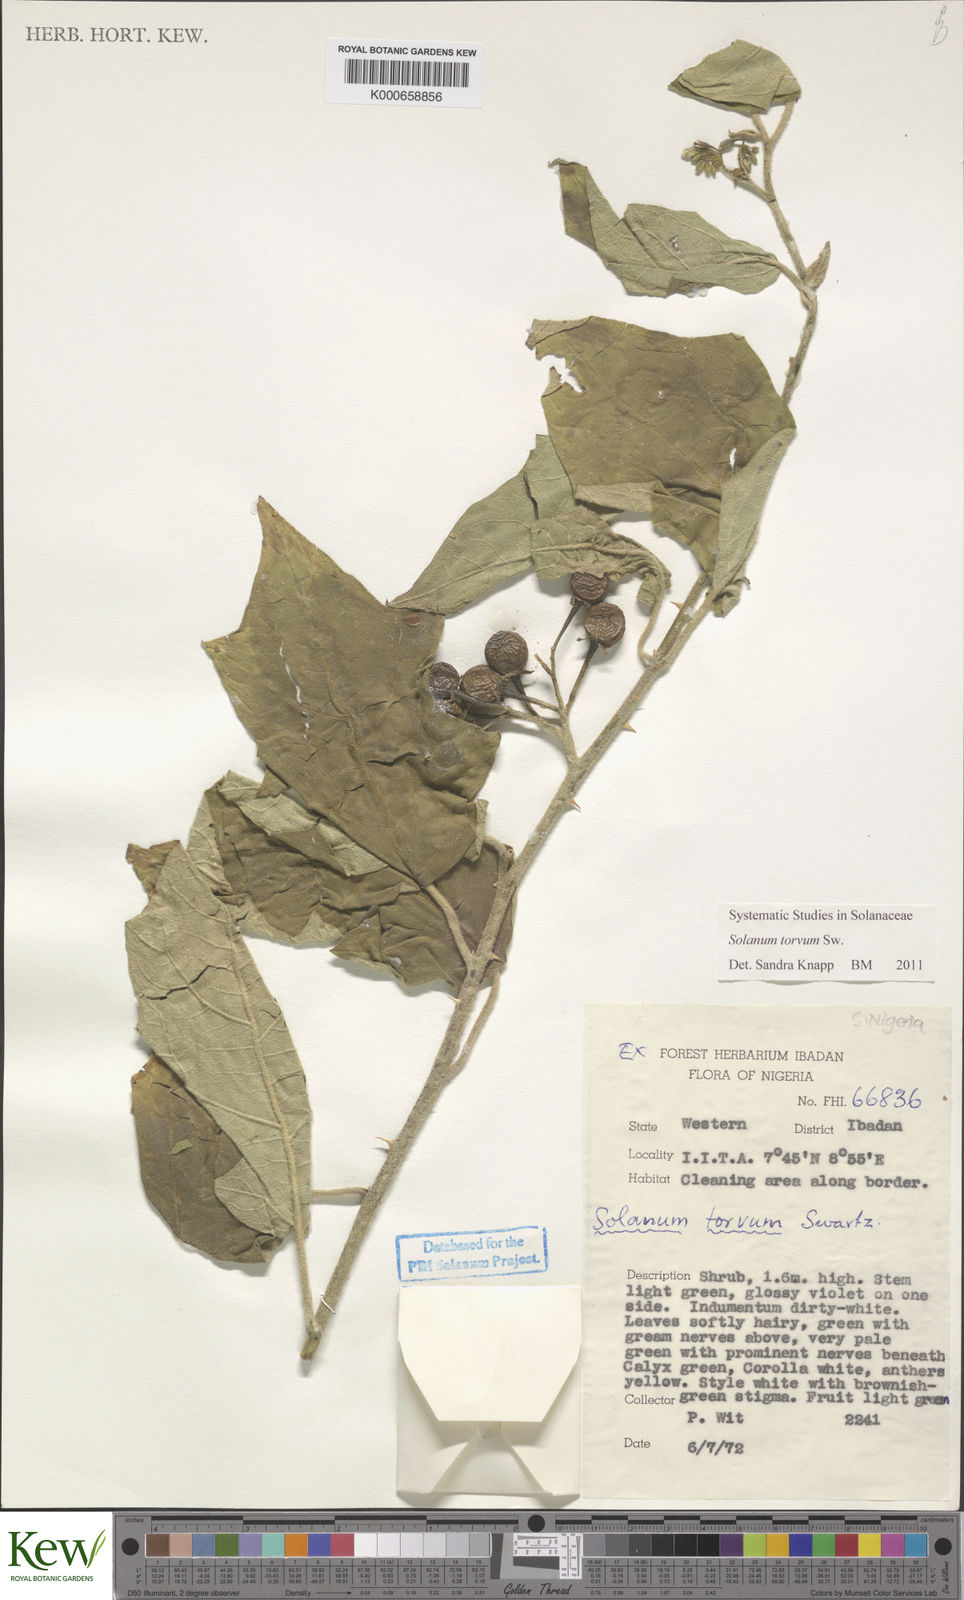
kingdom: Plantae
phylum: Tracheophyta
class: Magnoliopsida
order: Solanales
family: Solanaceae
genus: Solanum
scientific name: Solanum torvum
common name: Turkey berry
